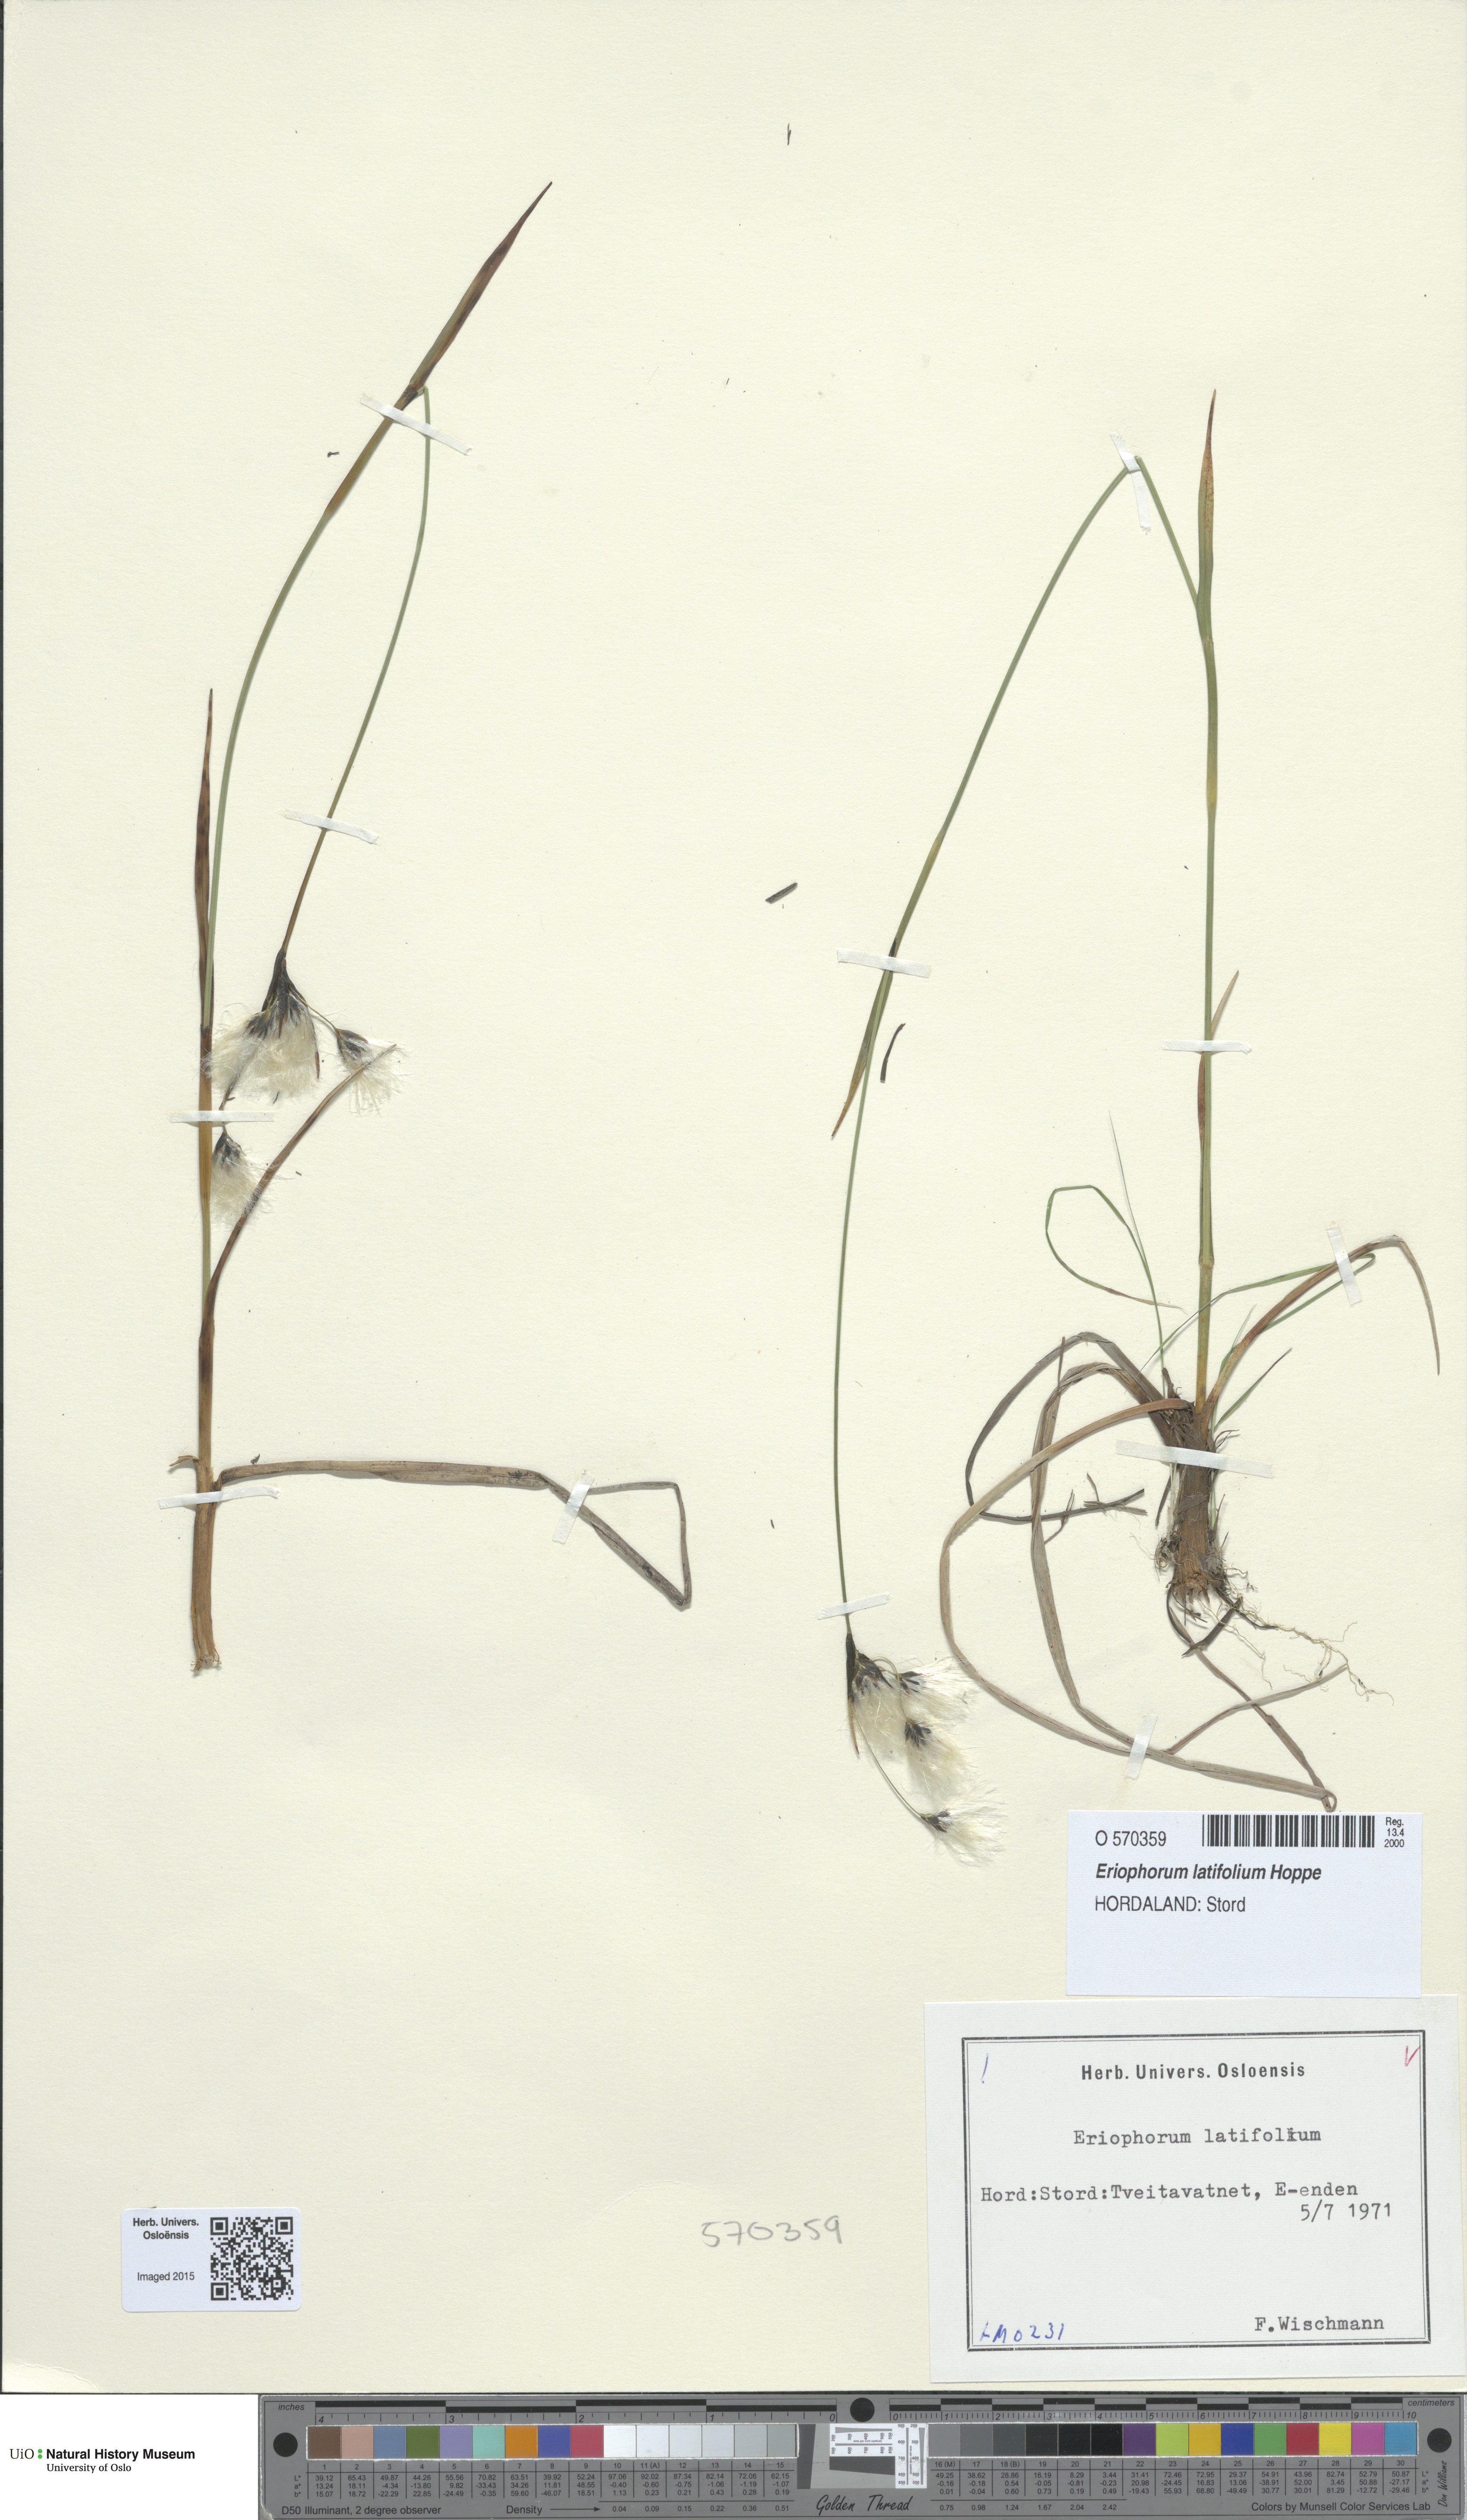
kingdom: Plantae
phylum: Tracheophyta
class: Liliopsida
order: Poales
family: Cyperaceae
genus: Eriophorum
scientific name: Eriophorum latifolium
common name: Broad-leaved cottongrass
